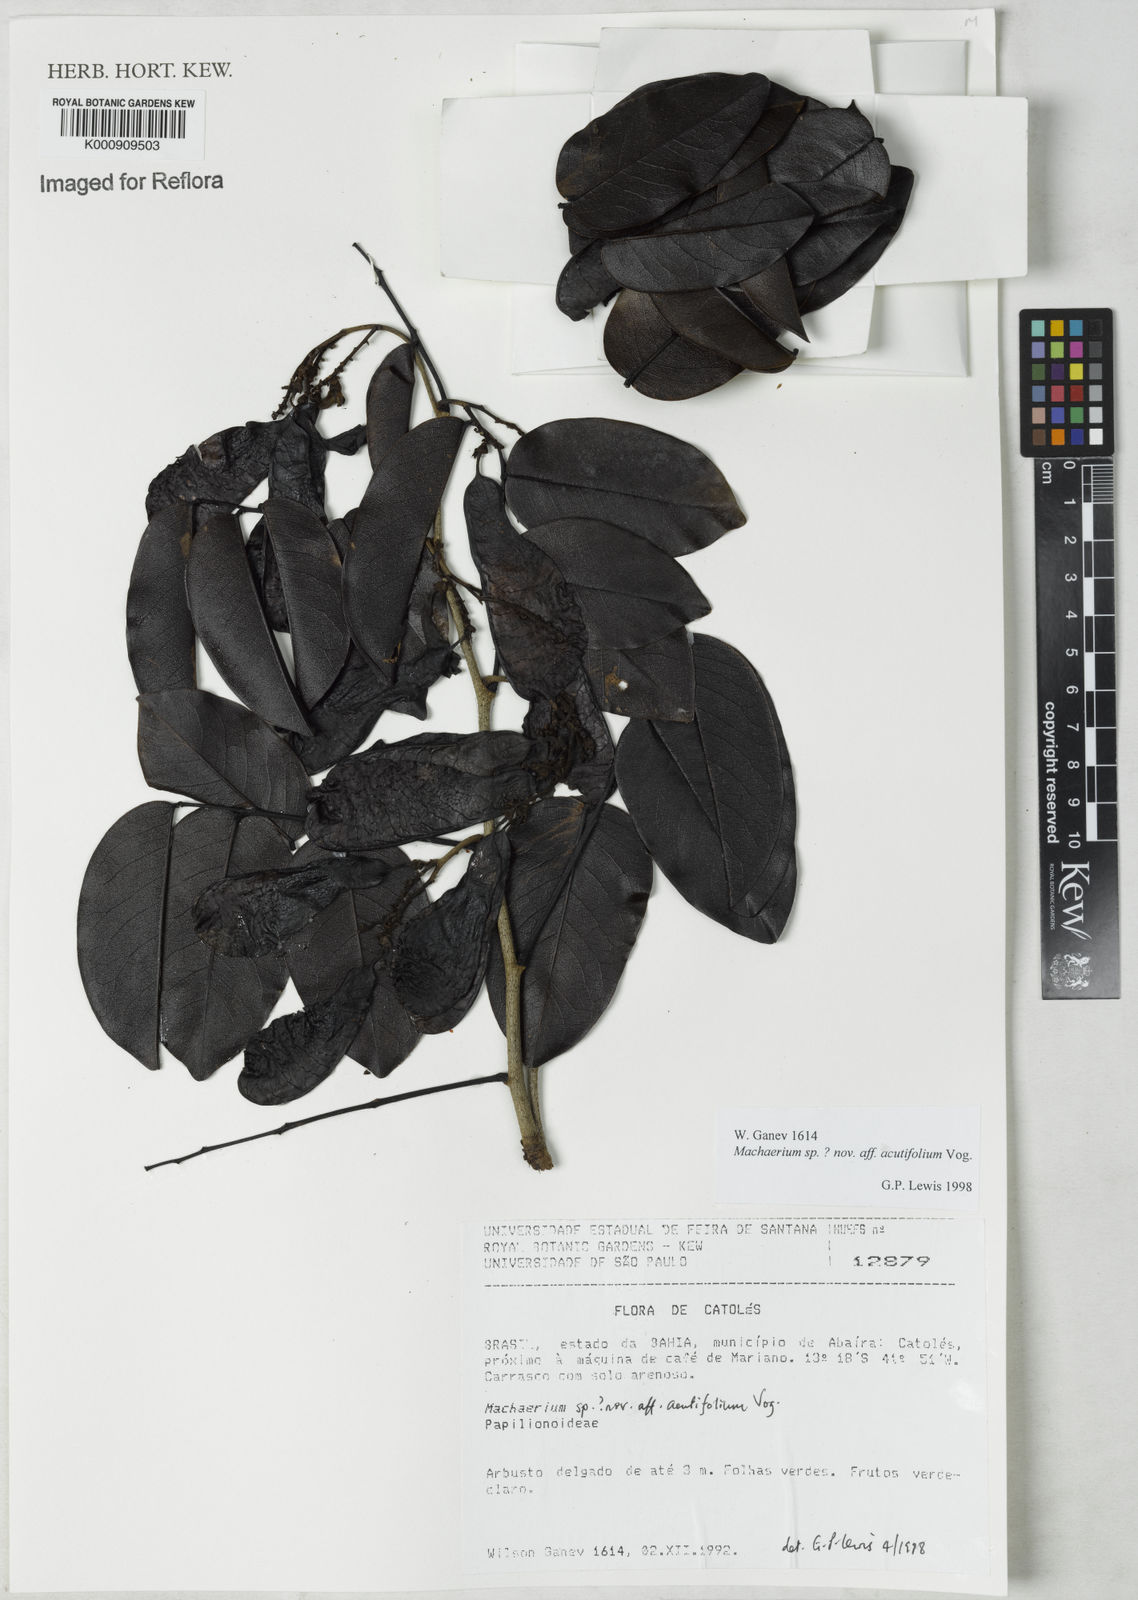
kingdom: Plantae
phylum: Tracheophyta
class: Magnoliopsida
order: Fabales
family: Fabaceae
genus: Machaerium
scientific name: Machaerium acutifolium
